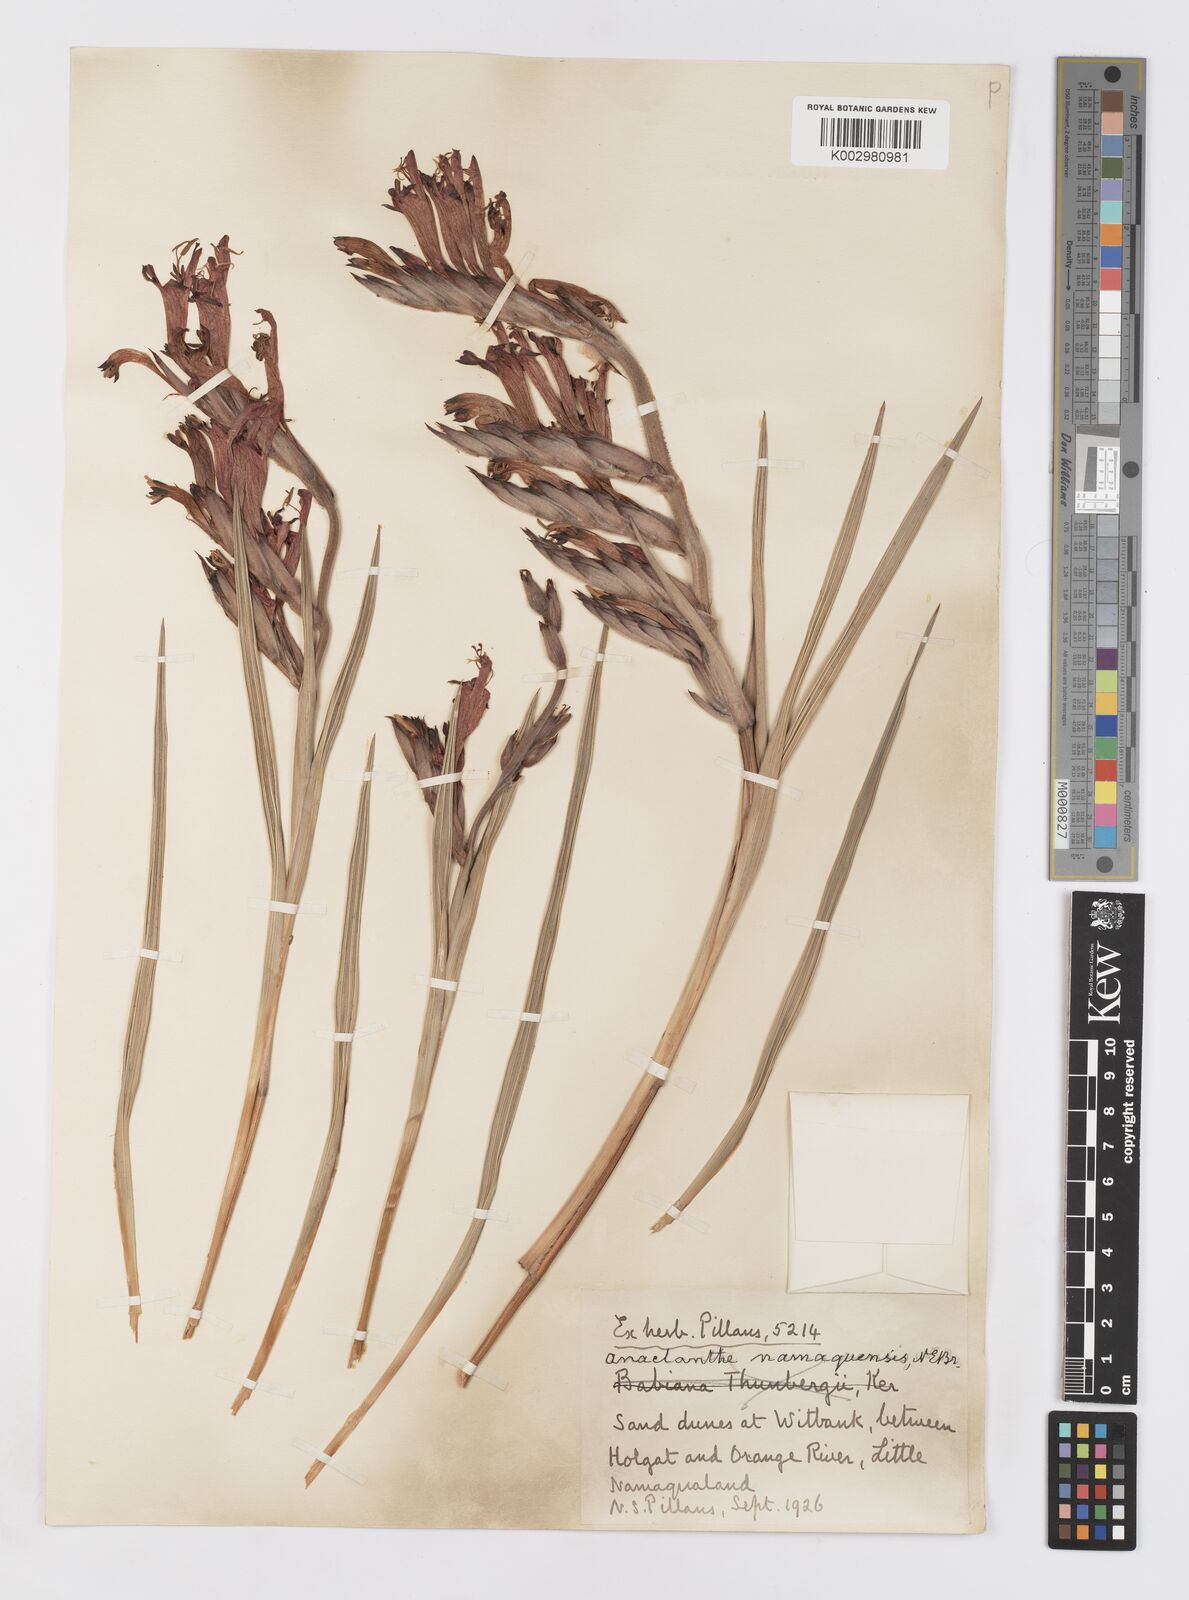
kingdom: Plantae
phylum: Tracheophyta
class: Liliopsida
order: Asparagales
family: Iridaceae
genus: Babiana
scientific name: Babiana
